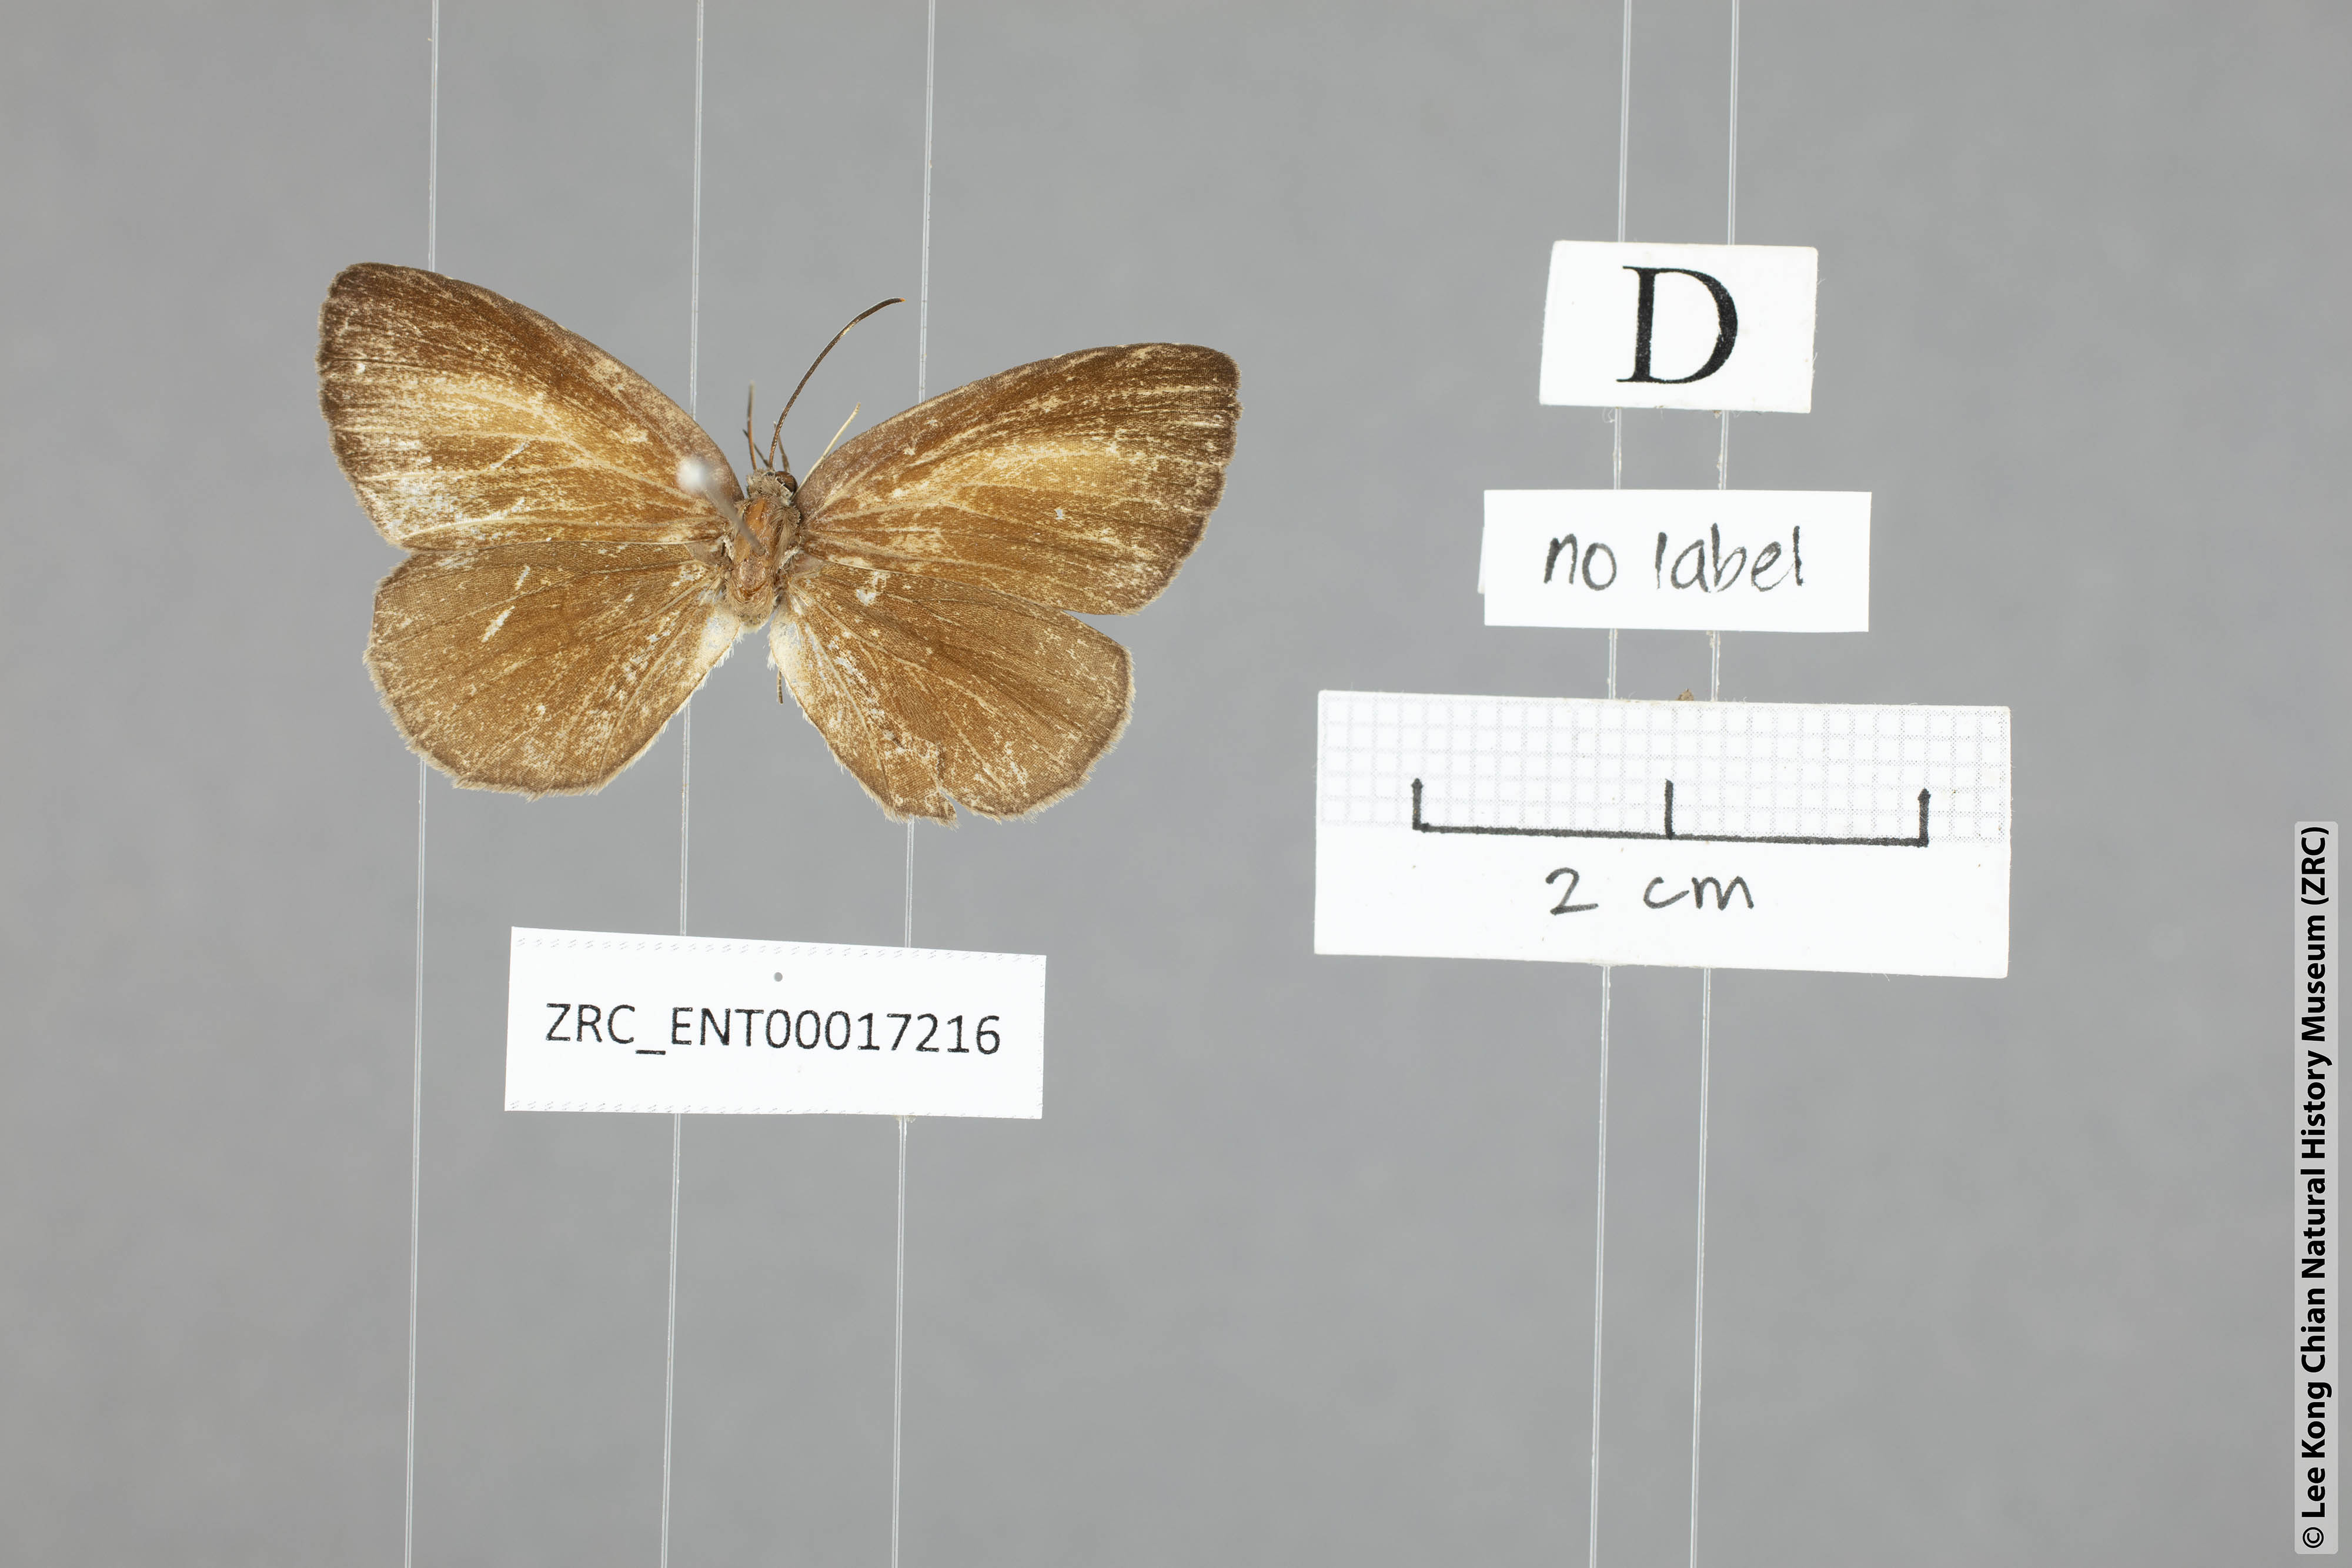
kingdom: Animalia
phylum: Arthropoda
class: Insecta
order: Lepidoptera
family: Lycaenidae
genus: Paragerydus
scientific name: Paragerydus horsfieldi
